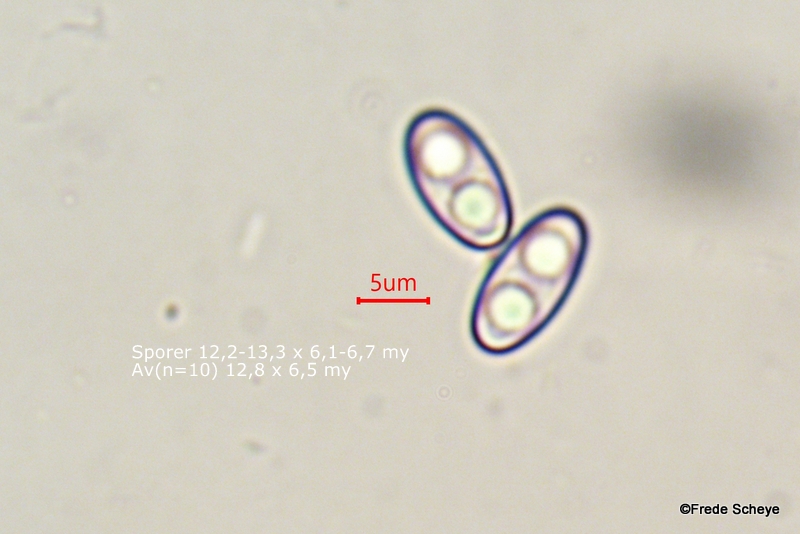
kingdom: Fungi
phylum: Ascomycota
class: Pezizomycetes
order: Pezizales
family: Otideaceae
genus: Otidea
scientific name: Otidea onotica
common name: æsel-ørebæger
